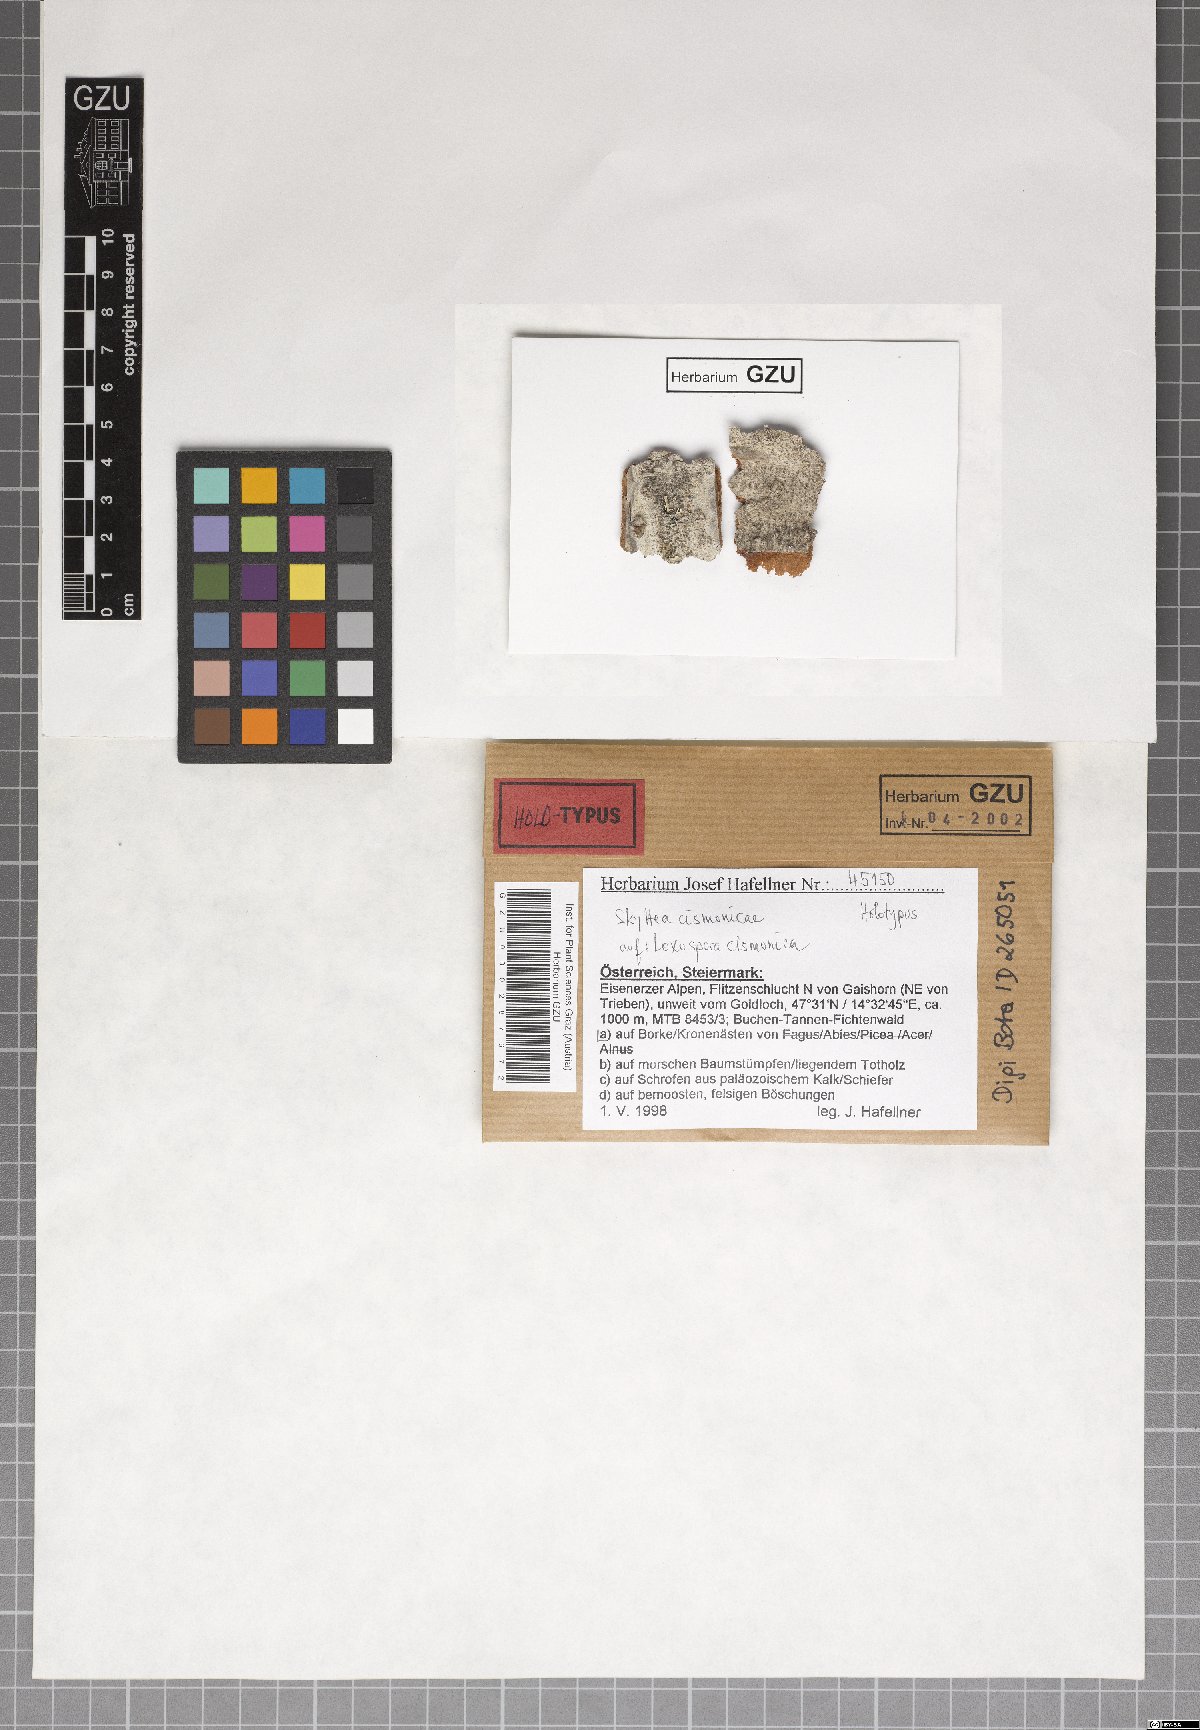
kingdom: Fungi
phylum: Ascomycota
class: Leotiomycetes
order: Helotiales
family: Cordieritidaceae
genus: Skyttea
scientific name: Skyttea cismonicae
